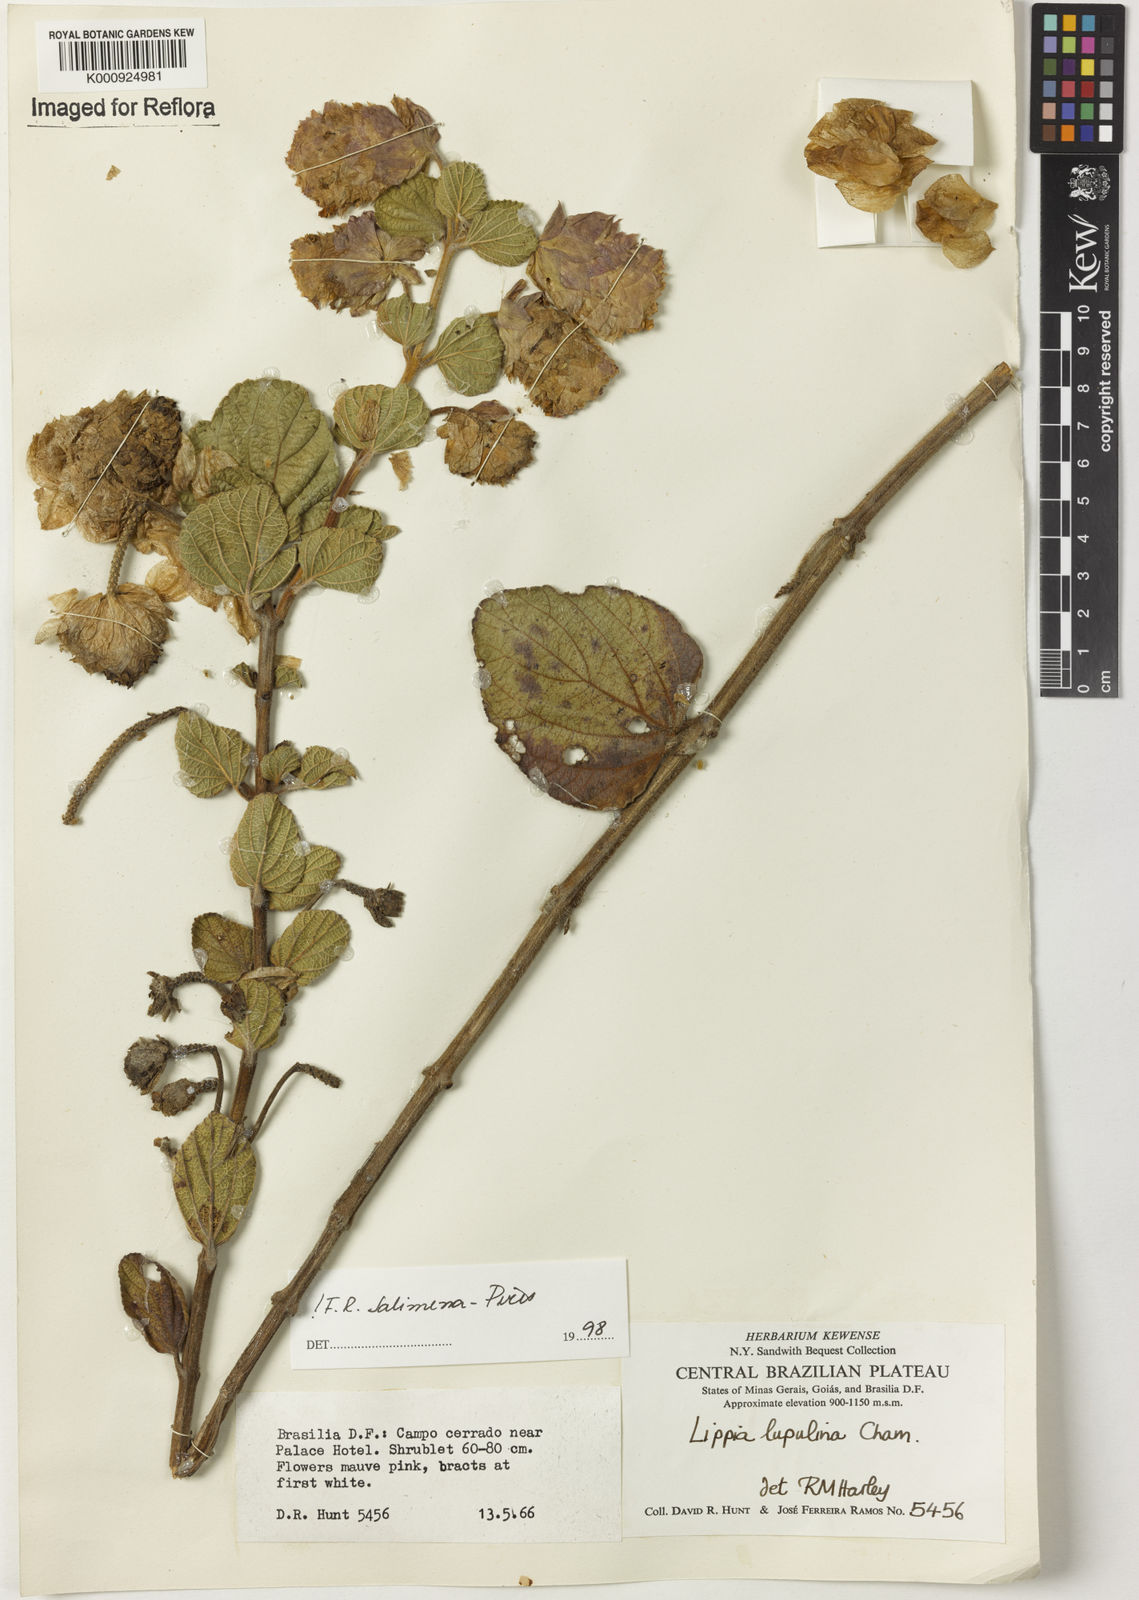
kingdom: Plantae
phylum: Tracheophyta
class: Magnoliopsida
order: Lamiales
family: Verbenaceae
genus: Lippia
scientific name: Lippia lupulina
